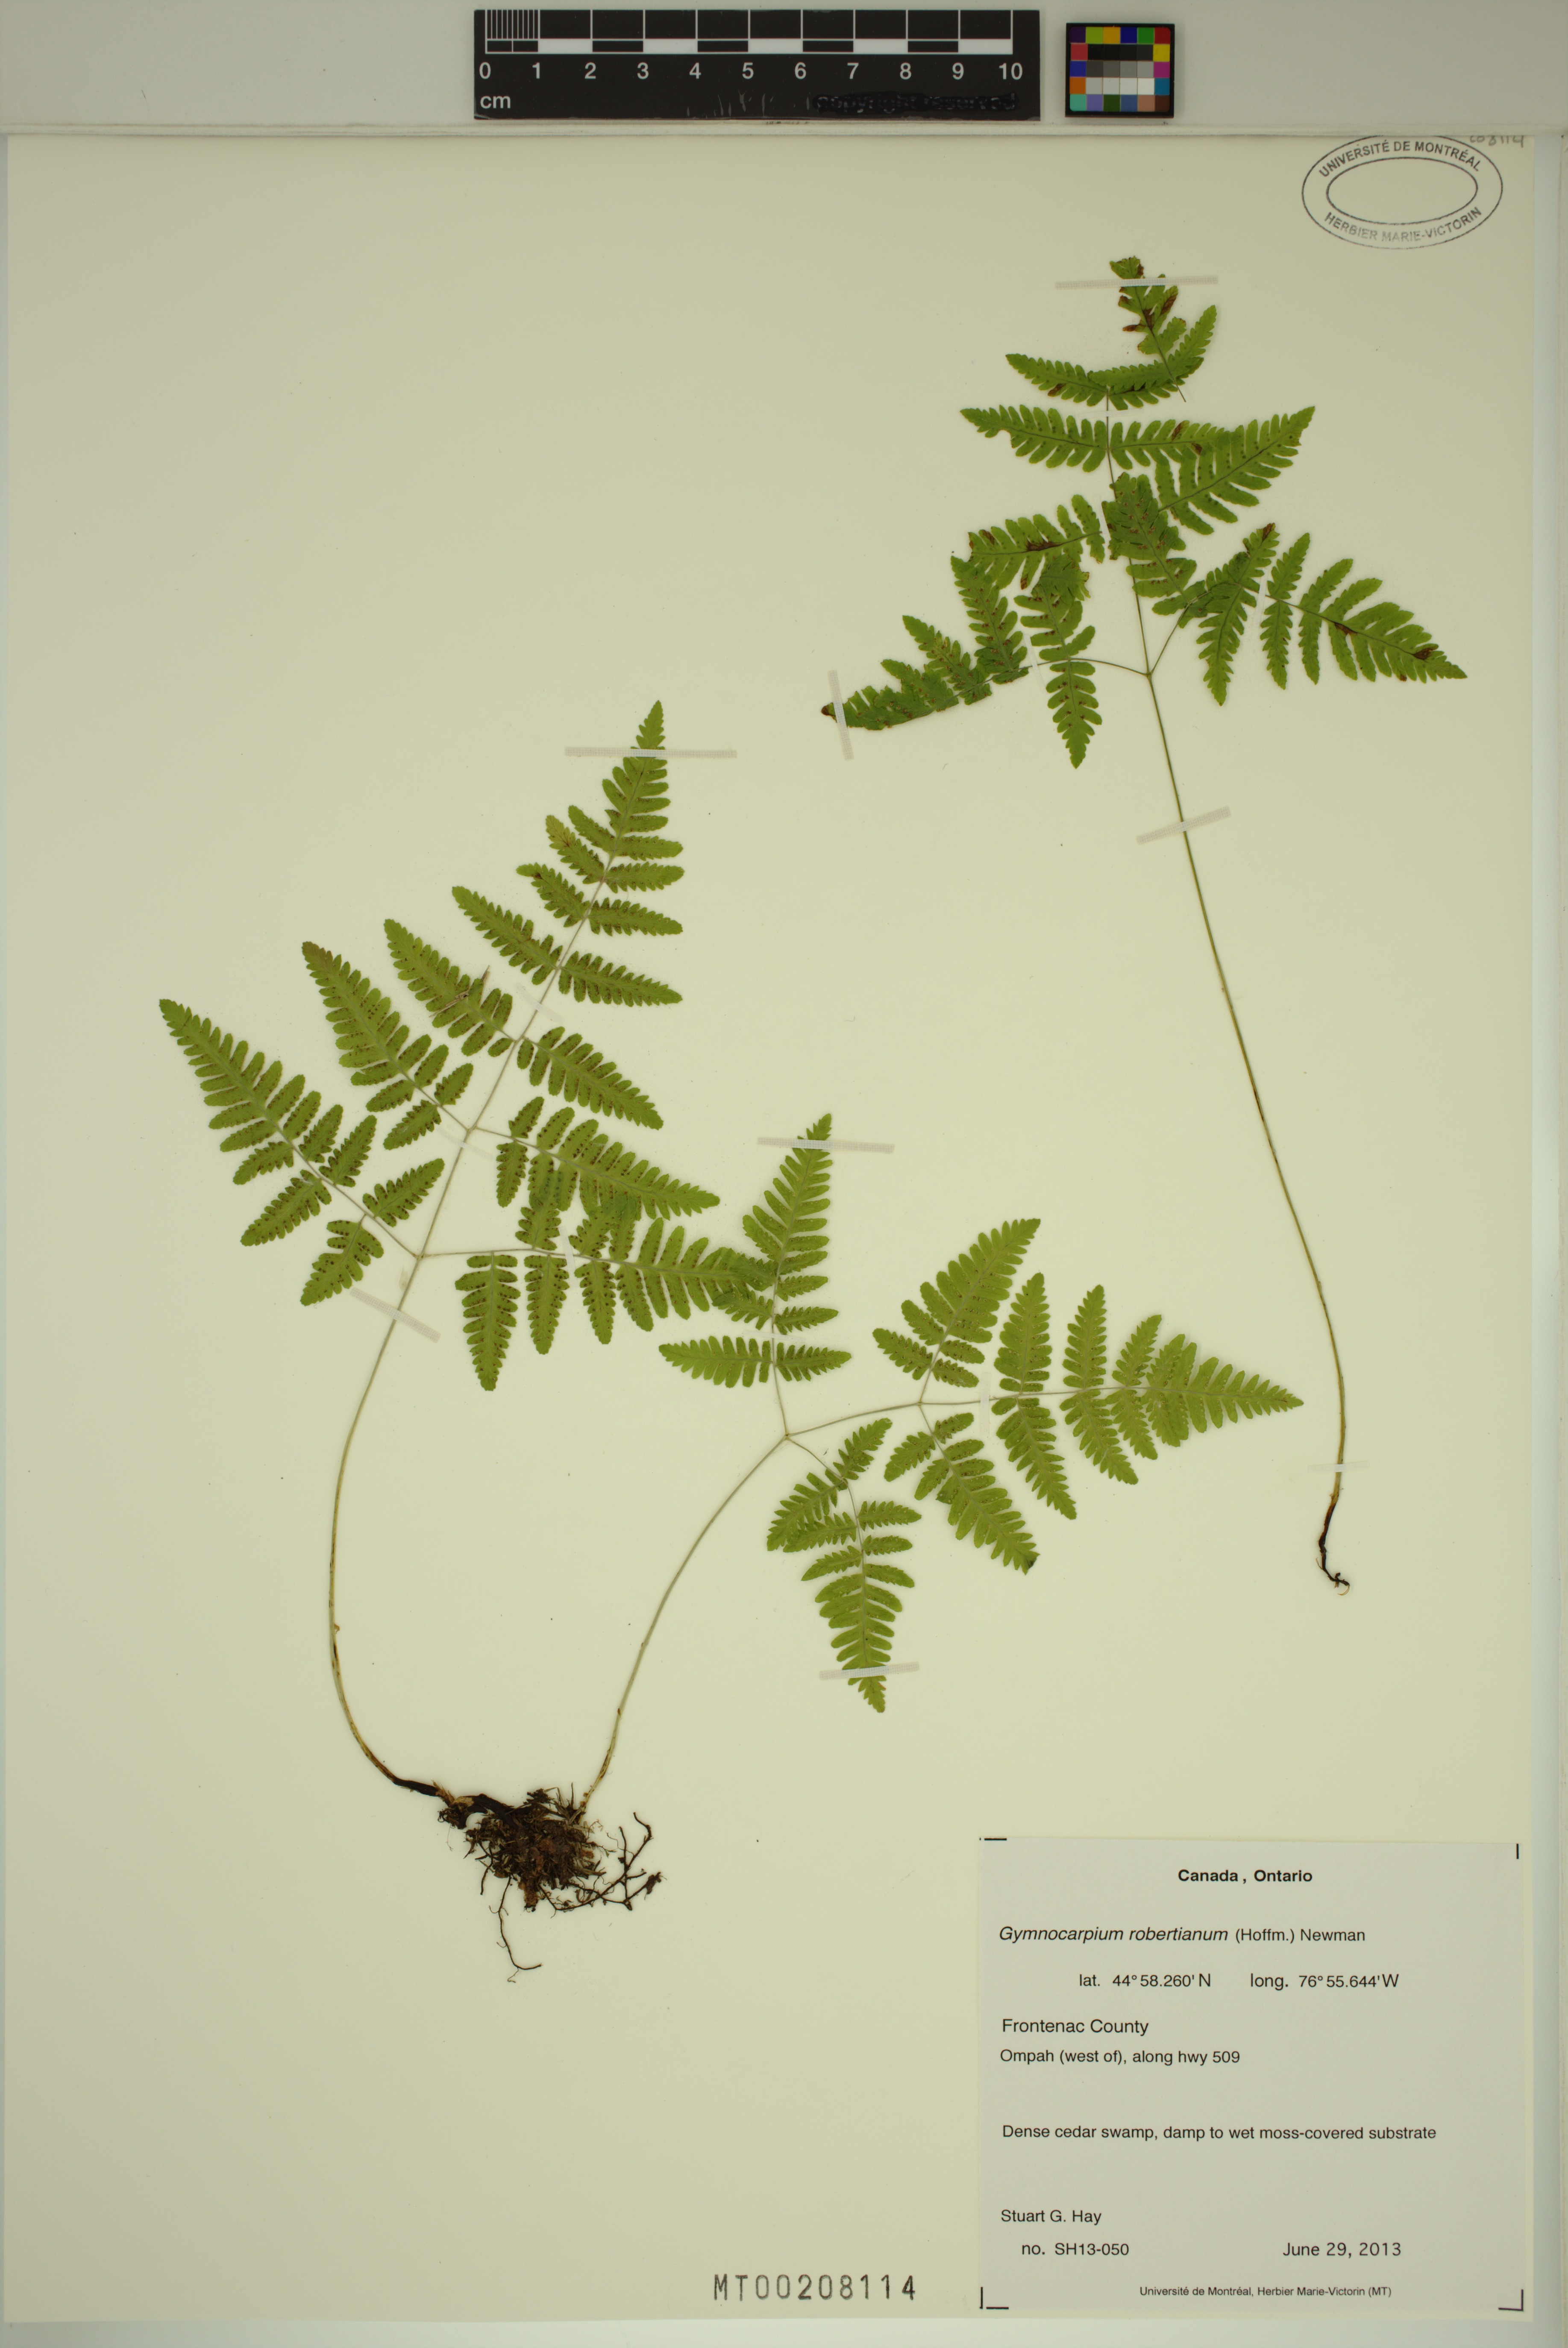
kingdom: Plantae
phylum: Tracheophyta
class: Polypodiopsida
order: Polypodiales
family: Cystopteridaceae
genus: Gymnocarpium
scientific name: Gymnocarpium robertianum
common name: Limestone fern
